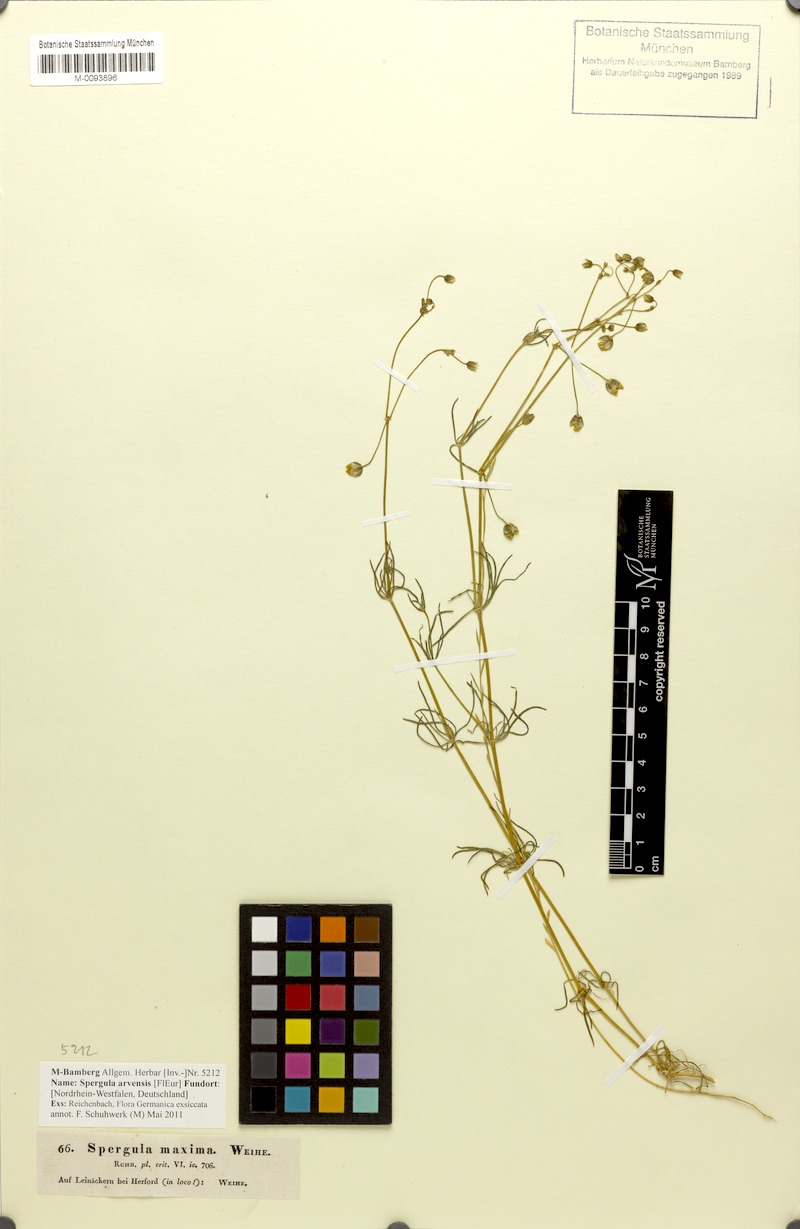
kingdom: Plantae
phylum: Tracheophyta
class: Magnoliopsida
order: Caryophyllales
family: Caryophyllaceae
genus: Spergula
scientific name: Spergula arvensis
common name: Corn spurrey
